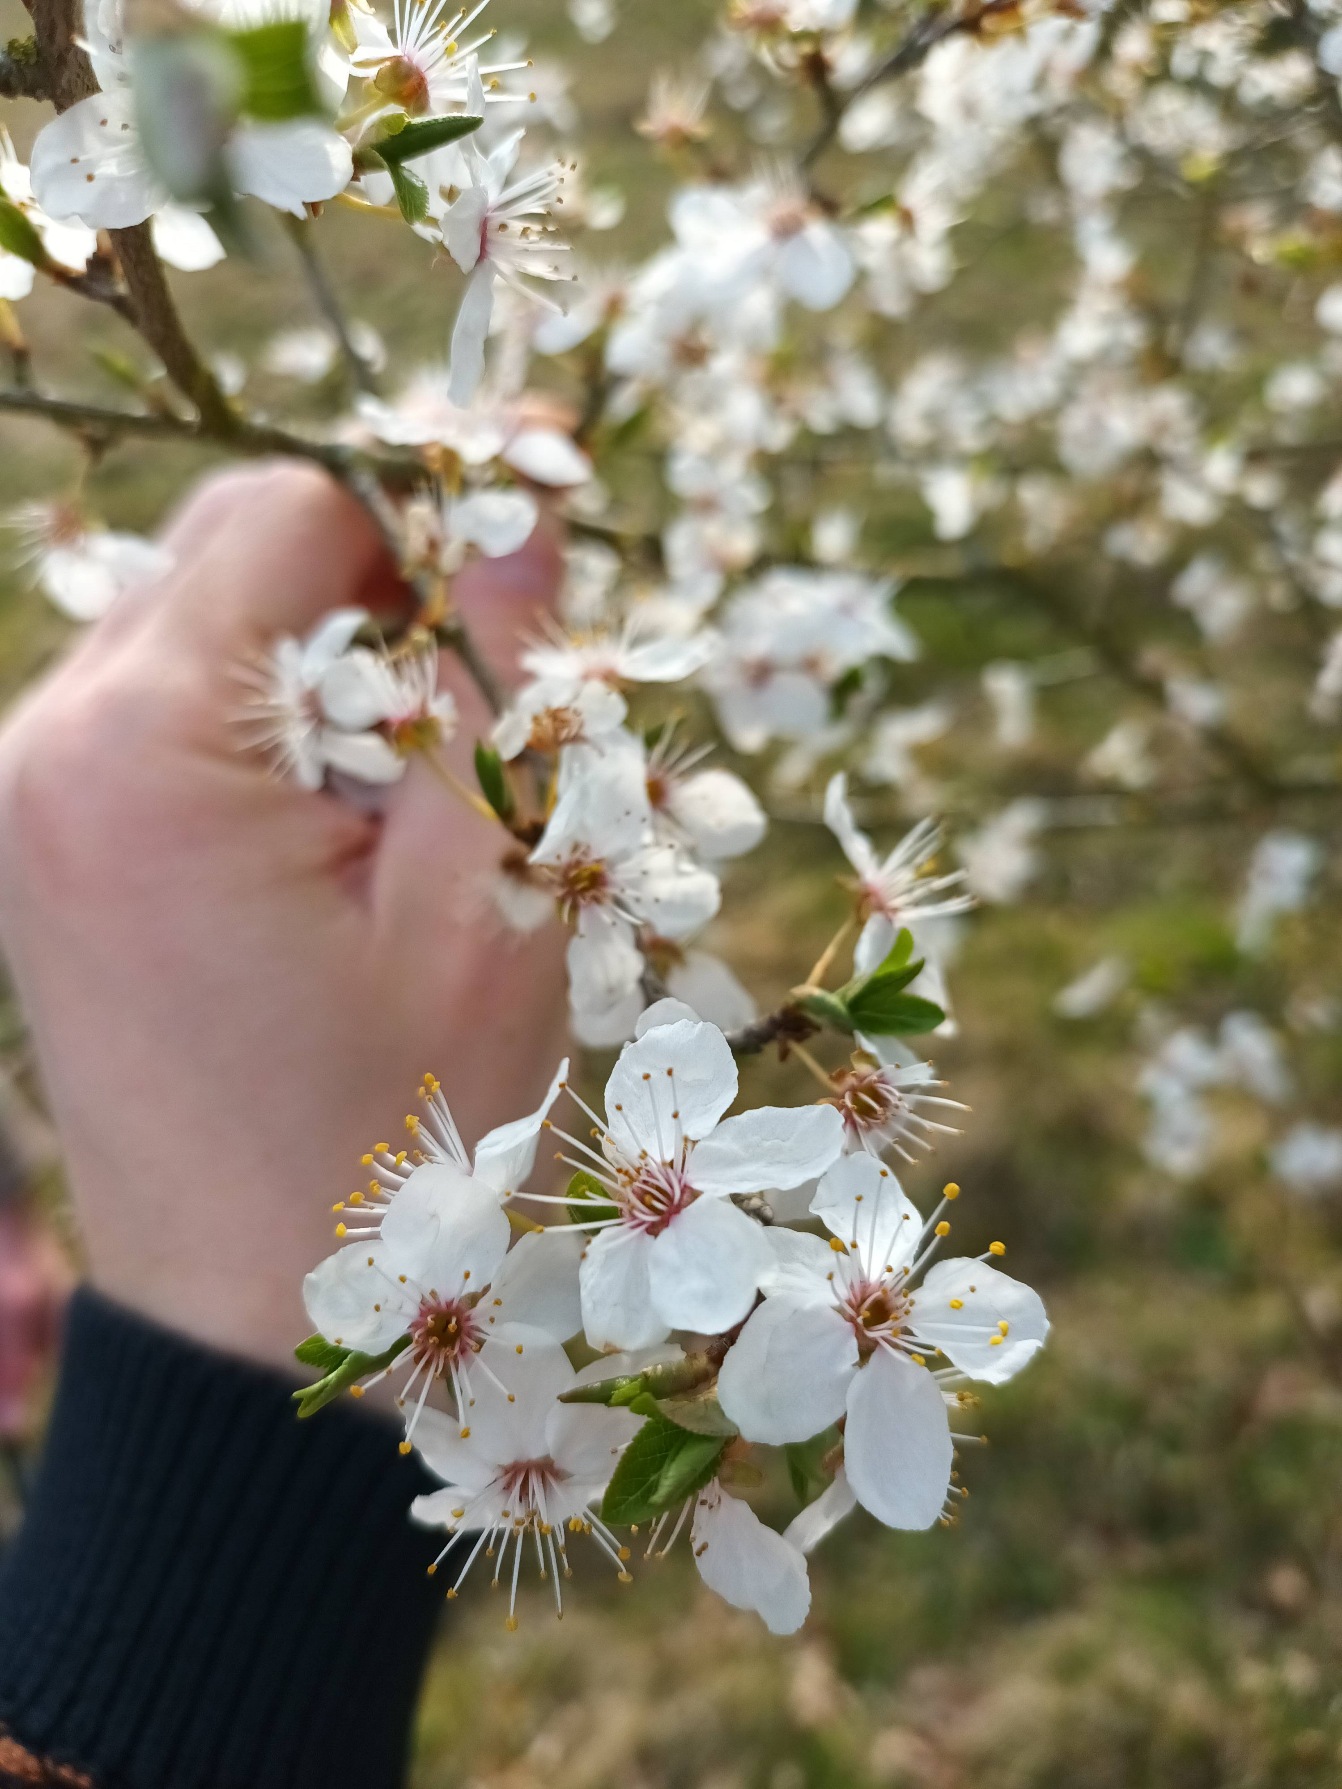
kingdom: Plantae
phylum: Tracheophyta
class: Magnoliopsida
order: Rosales
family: Rosaceae
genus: Prunus
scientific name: Prunus cerasifera
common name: Mirabel
